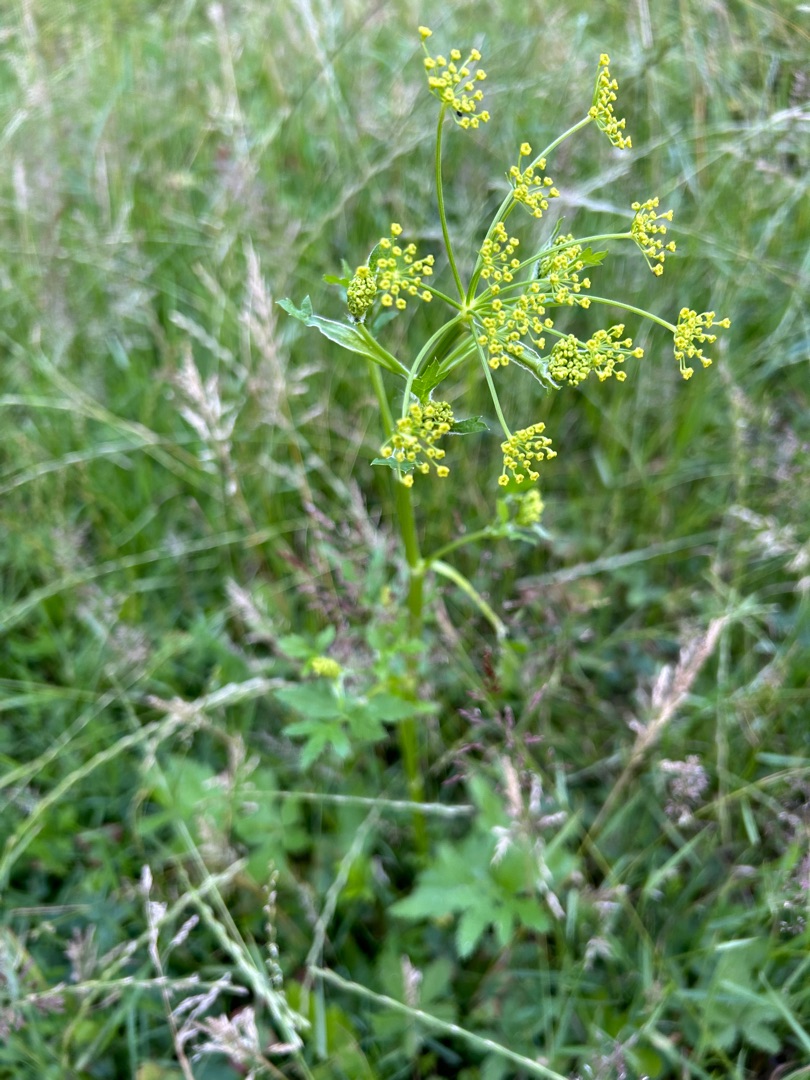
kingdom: Plantae
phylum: Tracheophyta
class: Magnoliopsida
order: Apiales
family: Apiaceae
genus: Pastinaca
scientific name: Pastinaca sativa
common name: Have-pastinak
